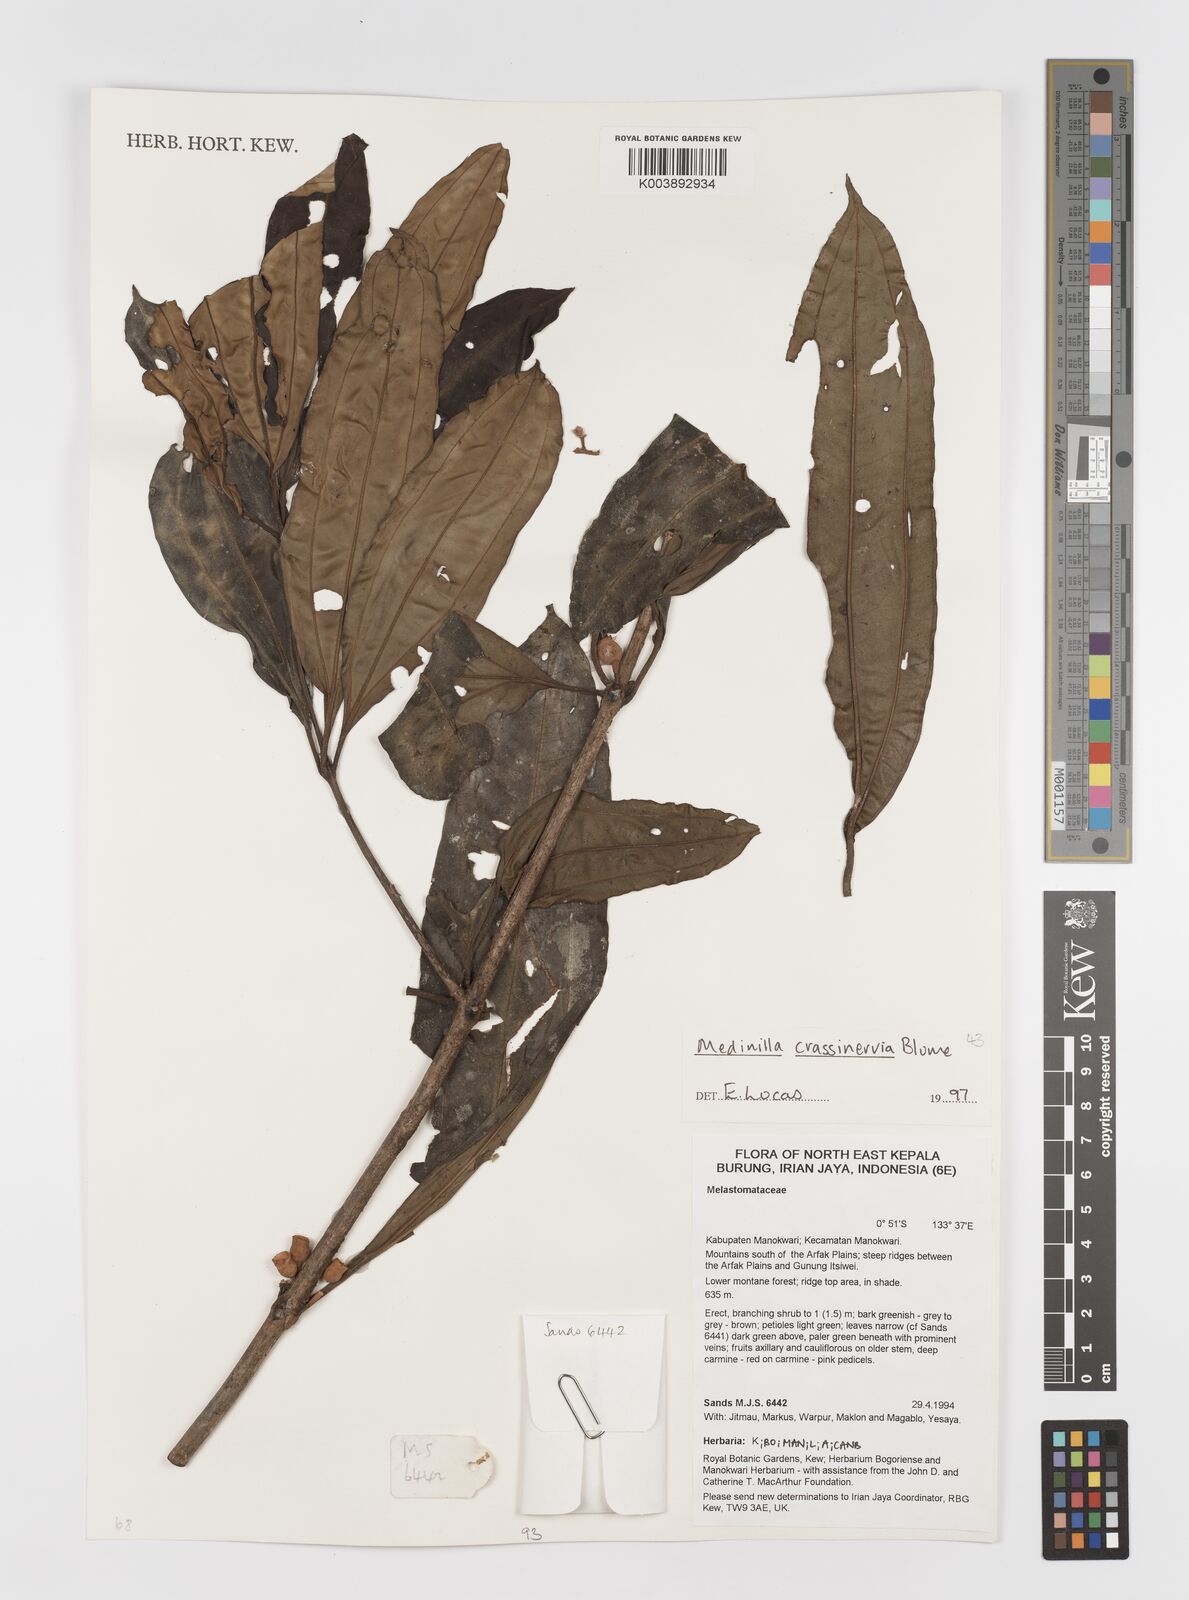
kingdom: Plantae
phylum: Tracheophyta
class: Magnoliopsida
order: Myrtales
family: Melastomataceae
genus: Medinilla
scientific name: Medinilla crassinervia
